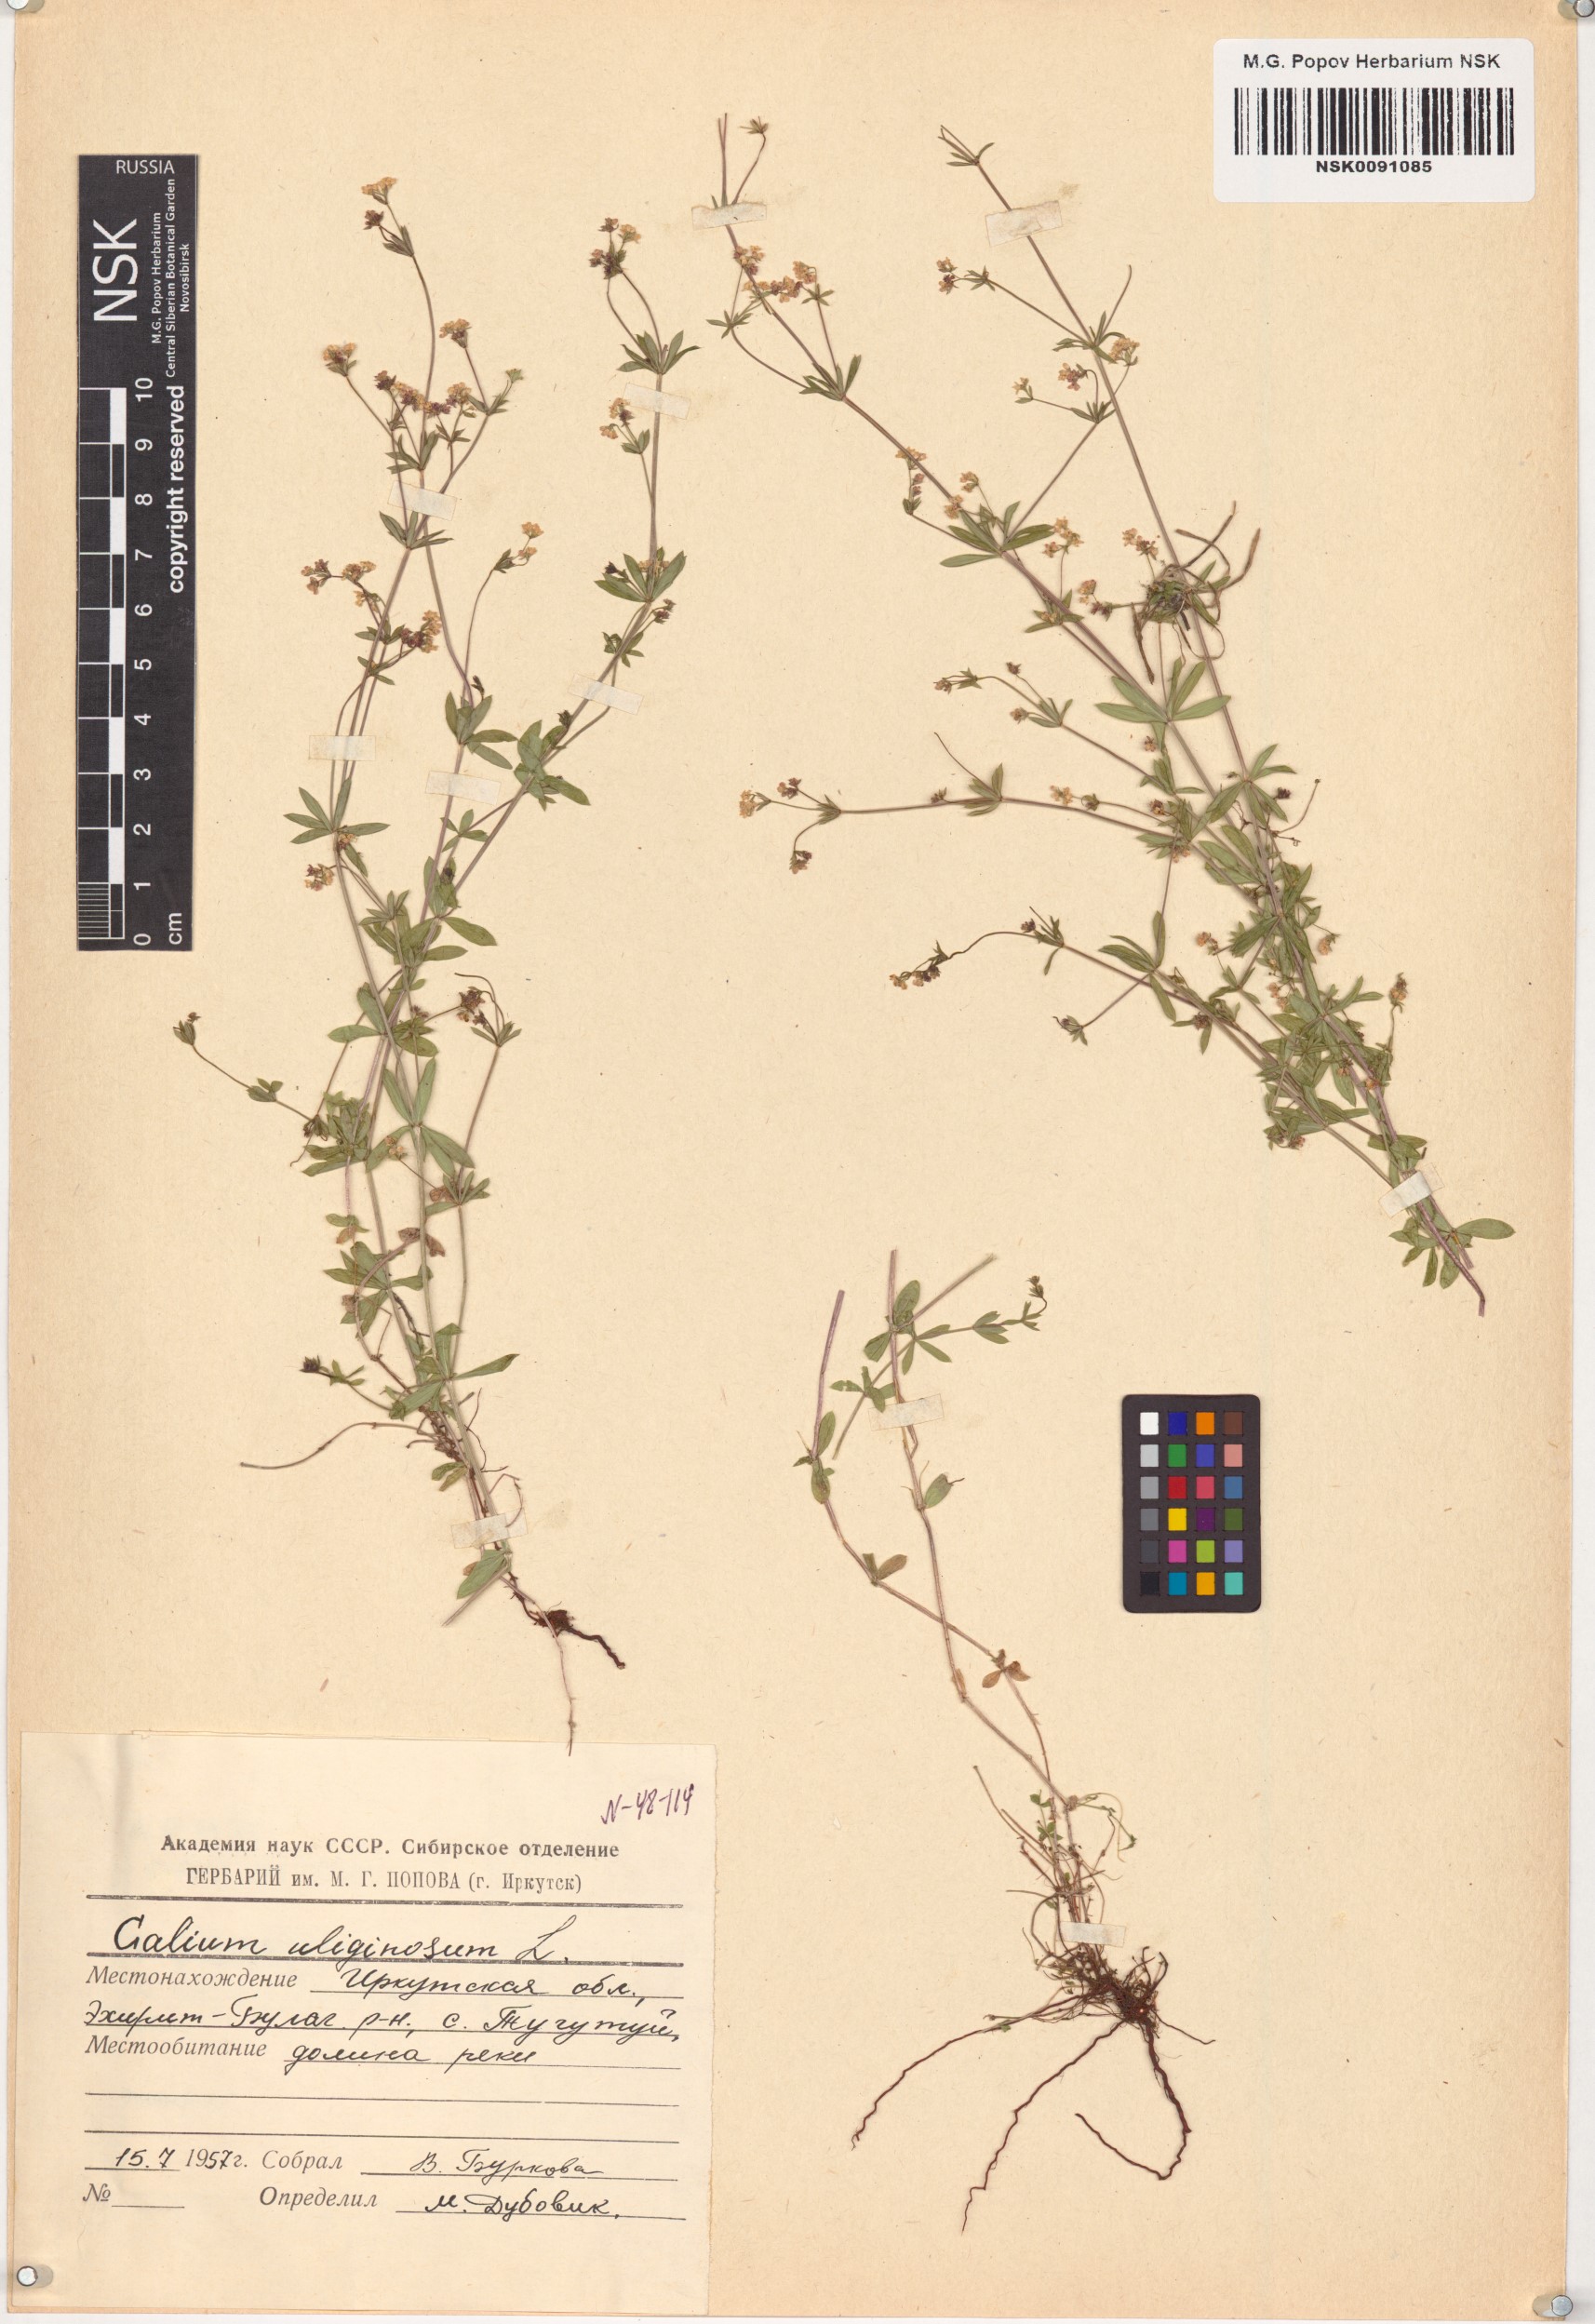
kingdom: Plantae
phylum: Tracheophyta
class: Magnoliopsida
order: Gentianales
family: Rubiaceae
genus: Galium
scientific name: Galium uliginosum
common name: Fen bedstraw
